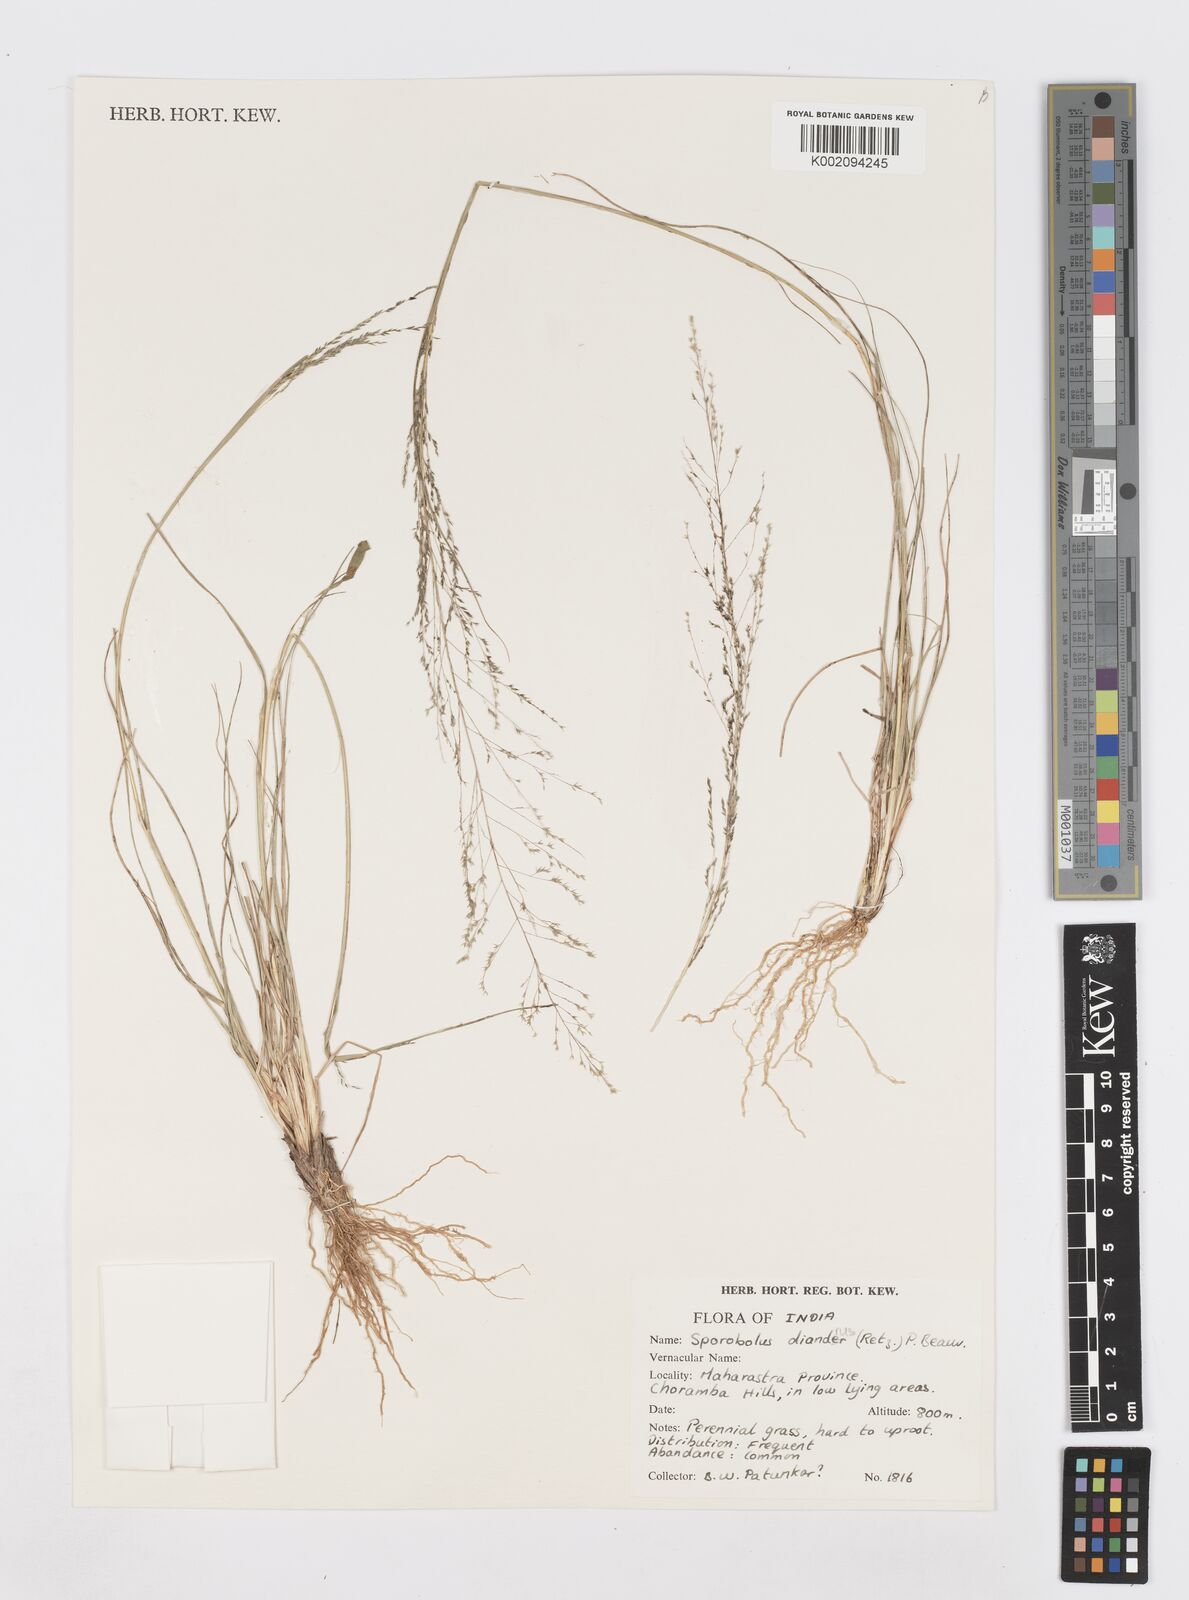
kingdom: Plantae
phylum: Tracheophyta
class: Liliopsida
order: Poales
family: Poaceae
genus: Sporobolus
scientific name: Sporobolus
